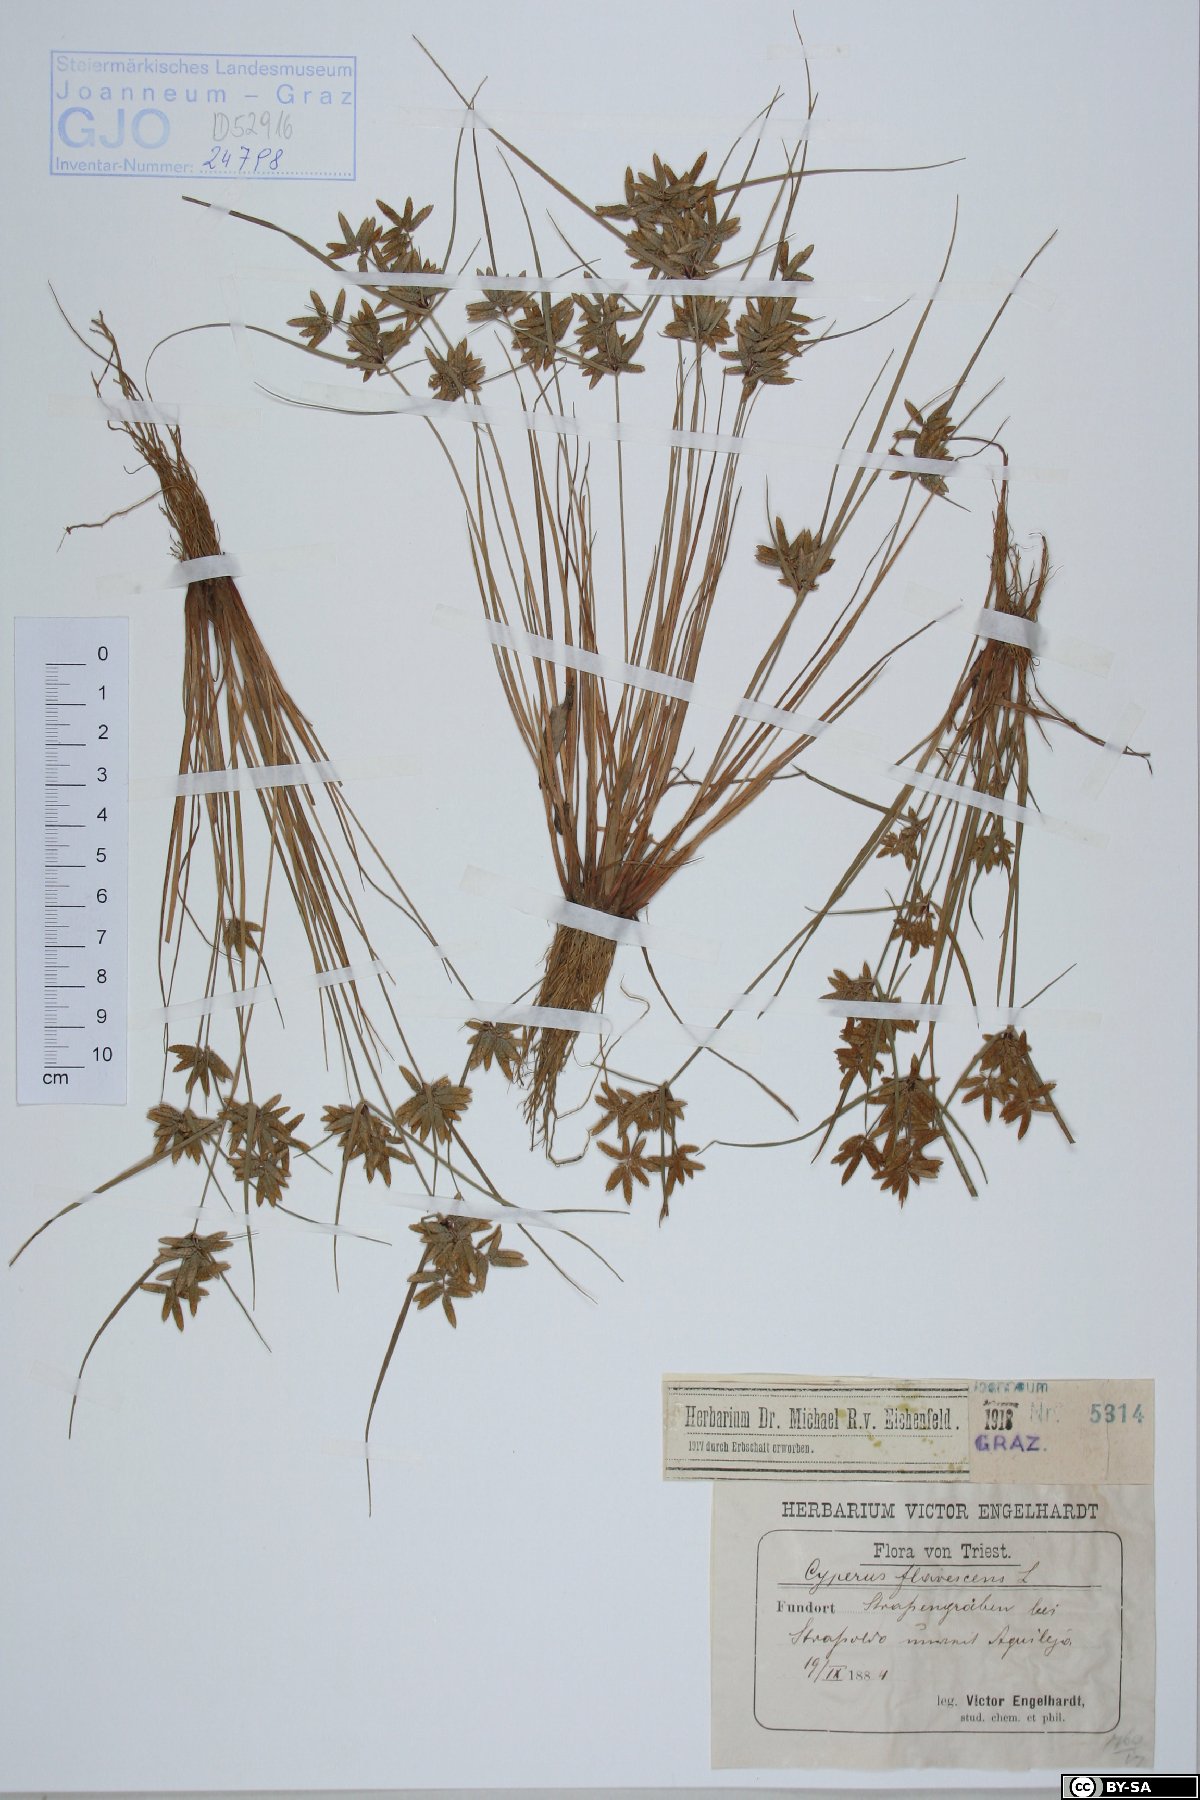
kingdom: Plantae
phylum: Tracheophyta
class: Liliopsida
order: Poales
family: Cyperaceae
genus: Cyperus
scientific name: Cyperus flavescens
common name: Yellow galingale
